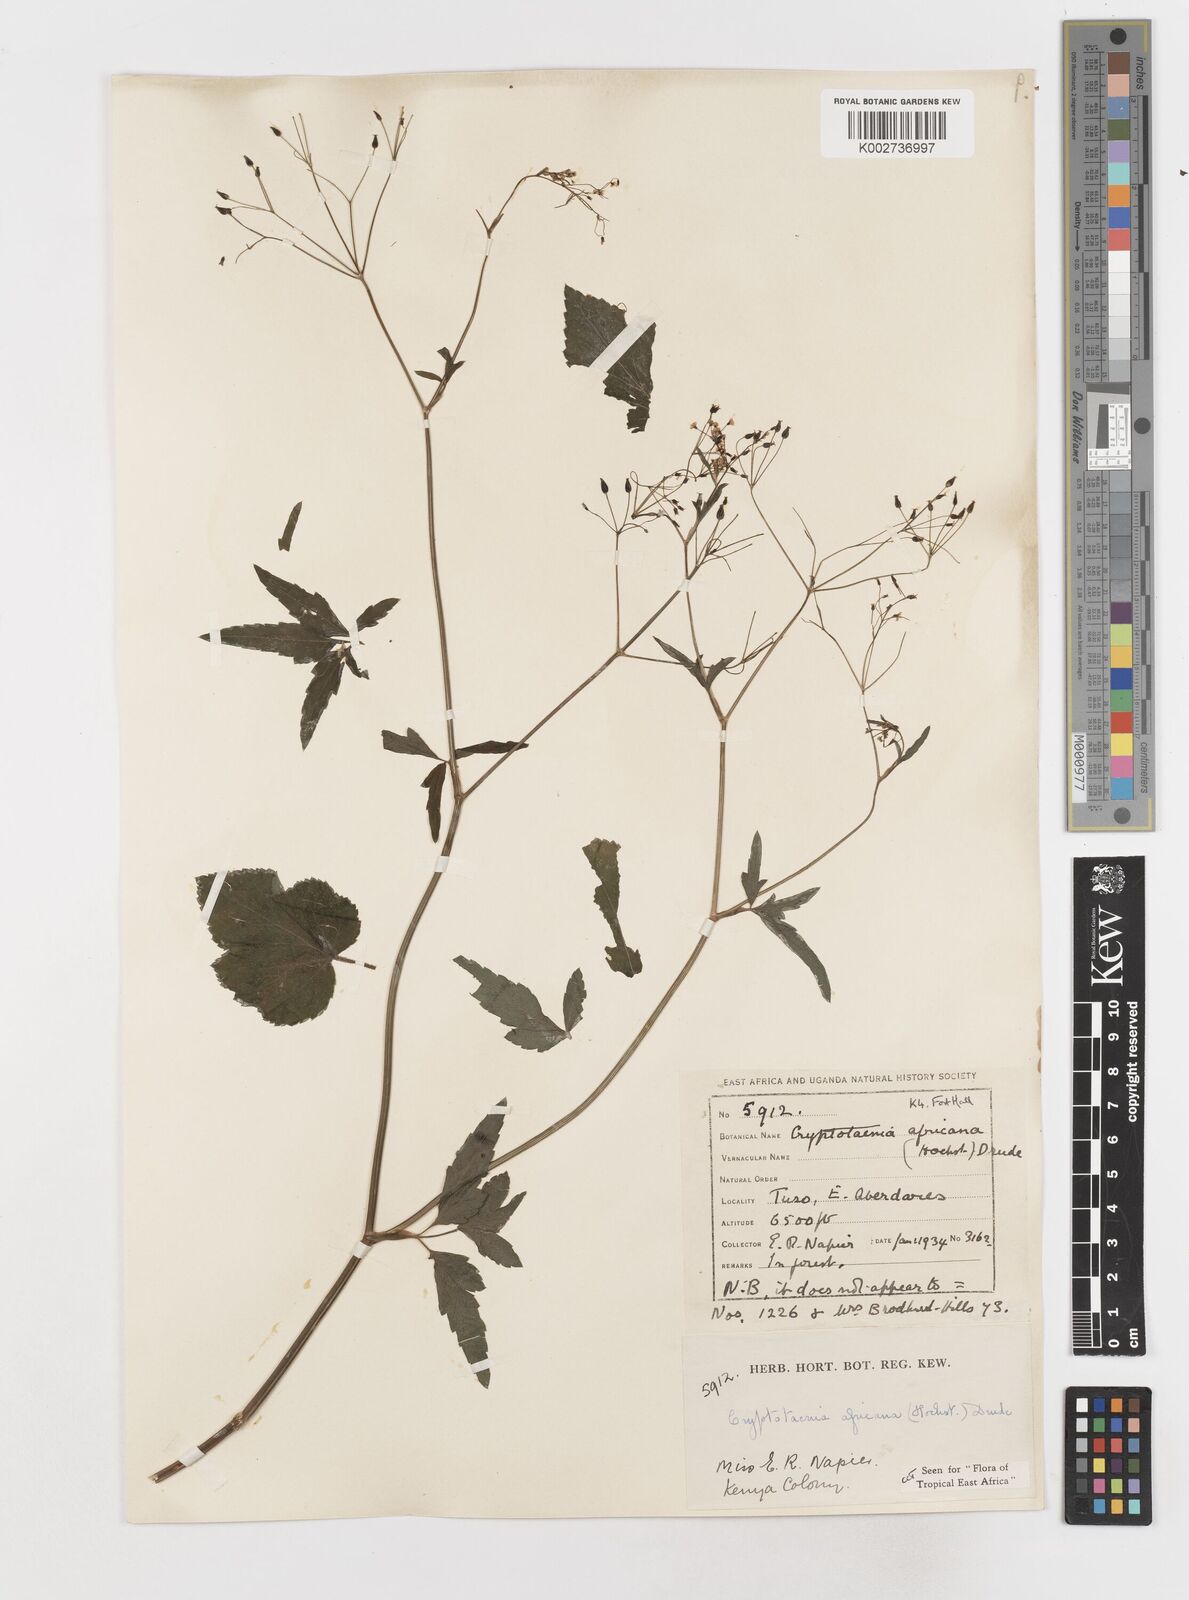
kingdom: Plantae
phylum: Tracheophyta
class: Magnoliopsida
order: Apiales
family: Apiaceae
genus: Cryptotaenia
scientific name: Cryptotaenia africana
